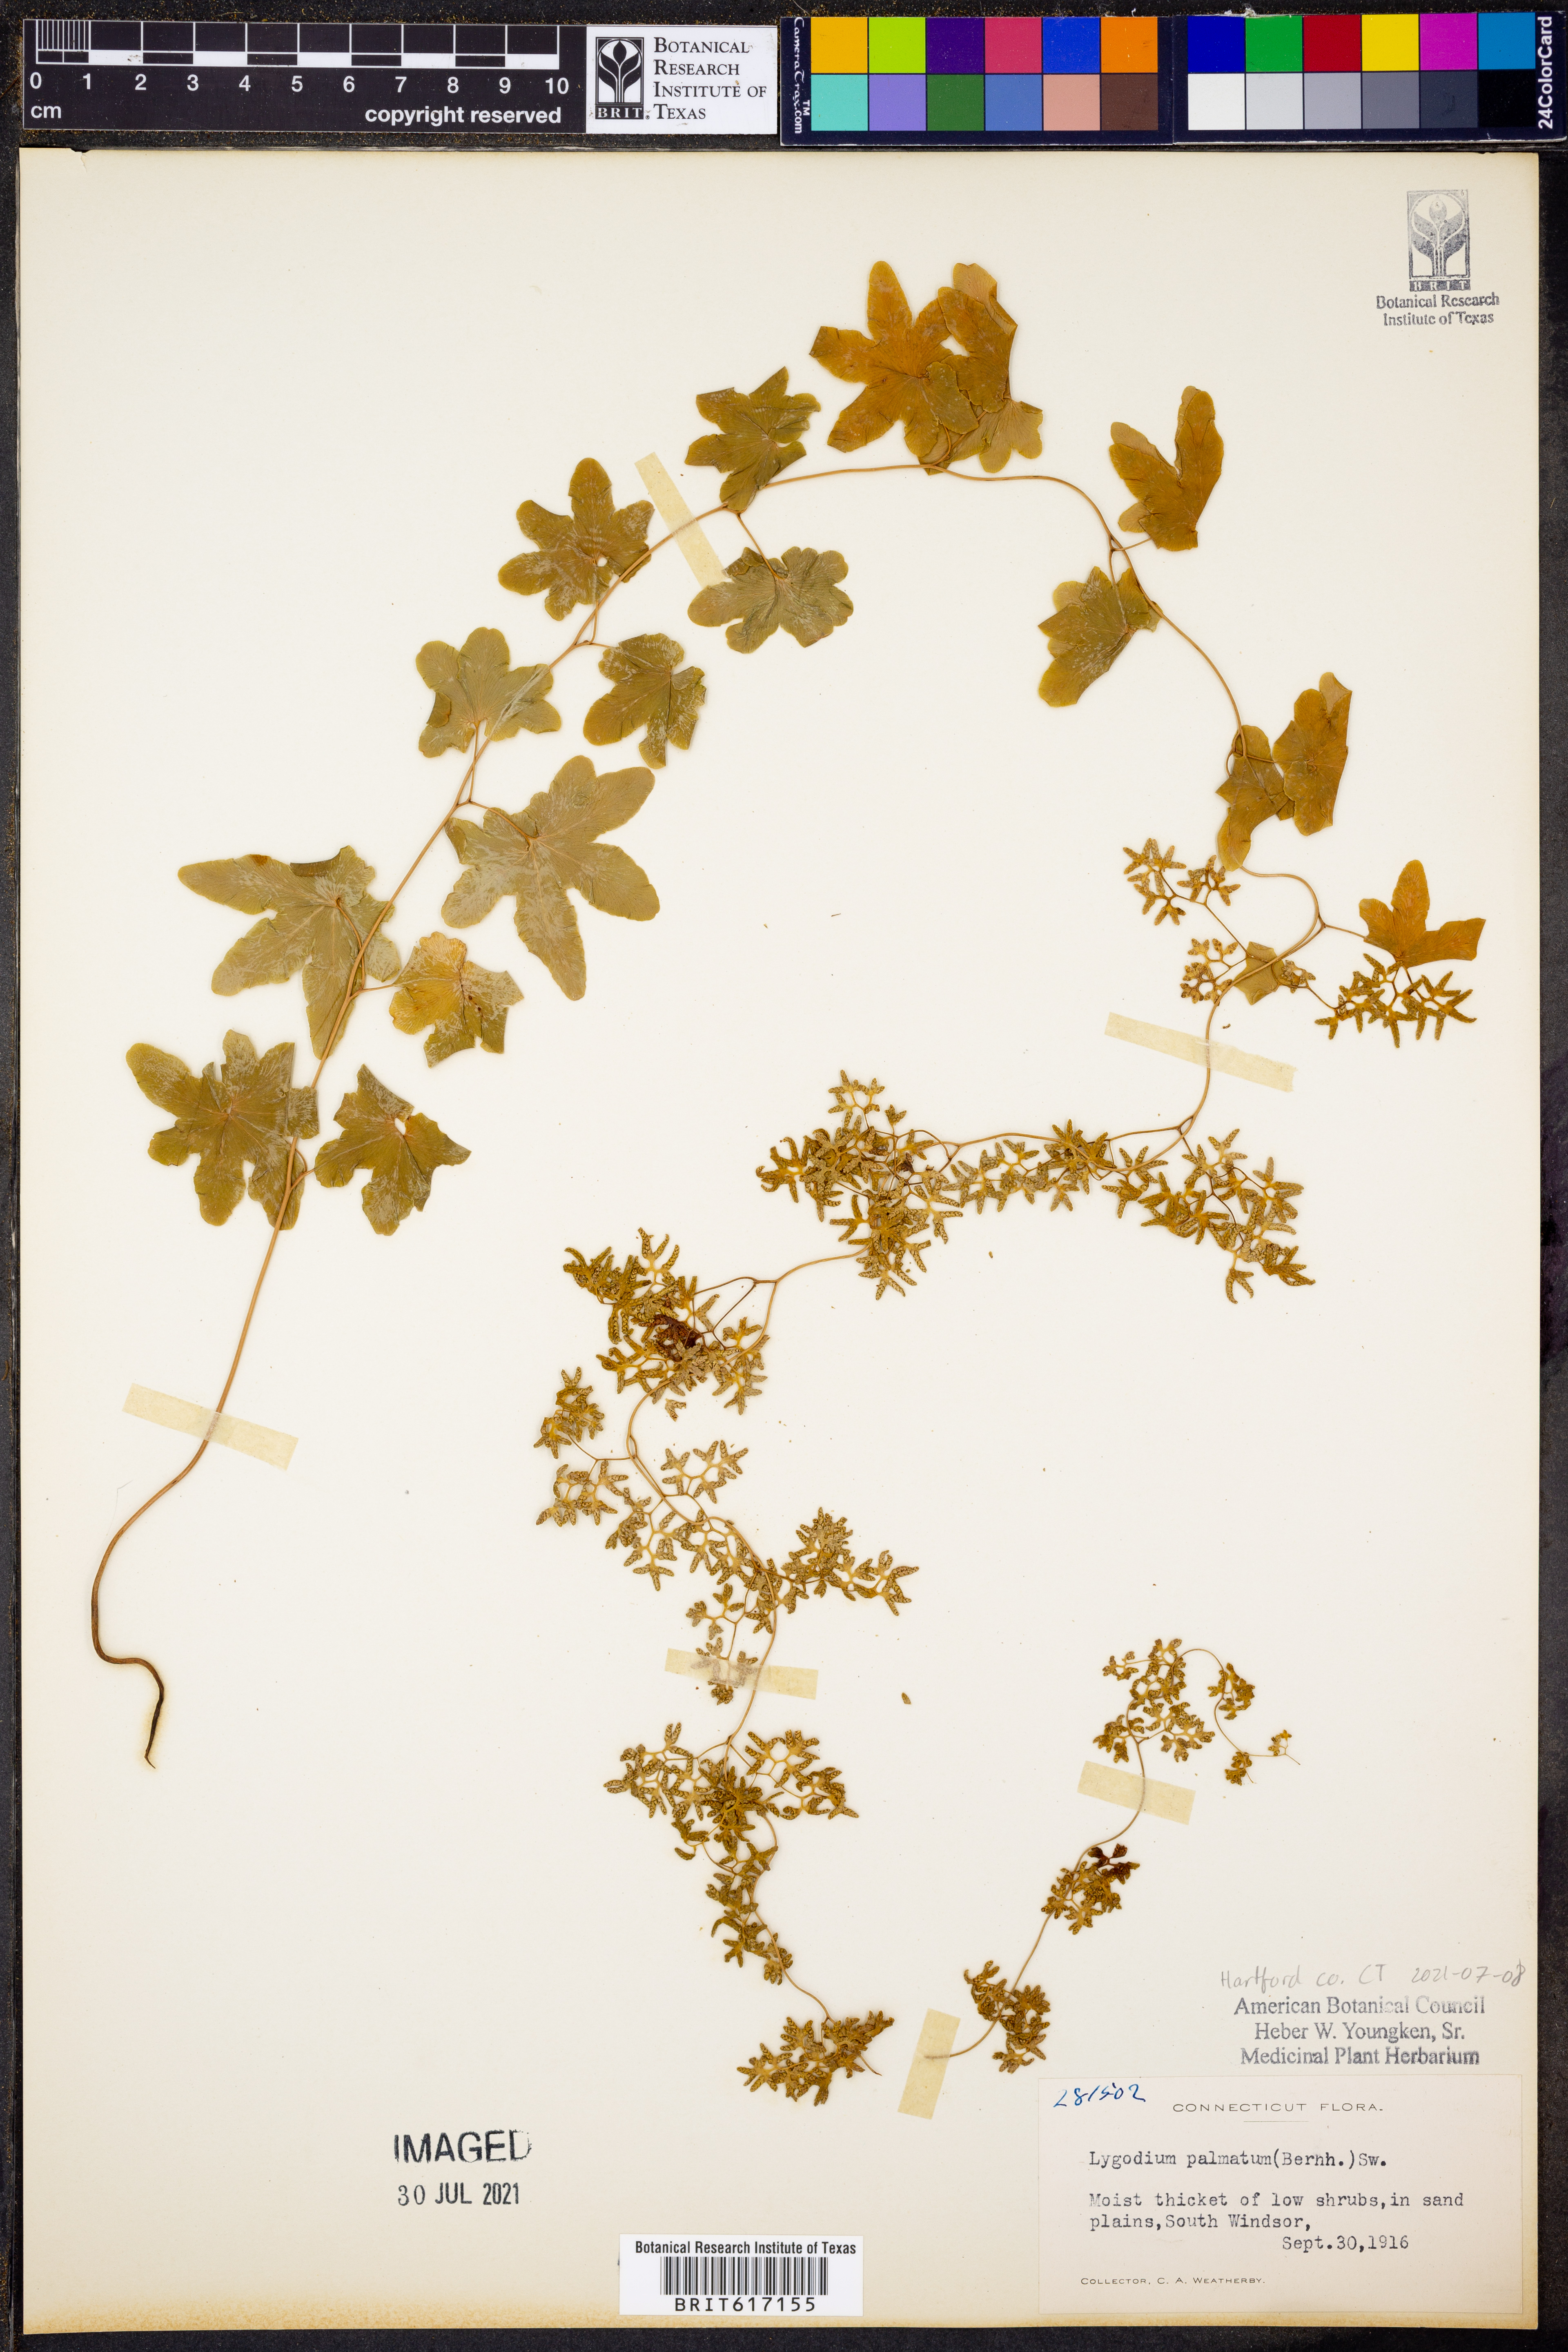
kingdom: Plantae
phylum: Tracheophyta
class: Polypodiopsida
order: Schizaeales
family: Lygodiaceae
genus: Lygodium
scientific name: Lygodium palmatum
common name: American climbing fern
